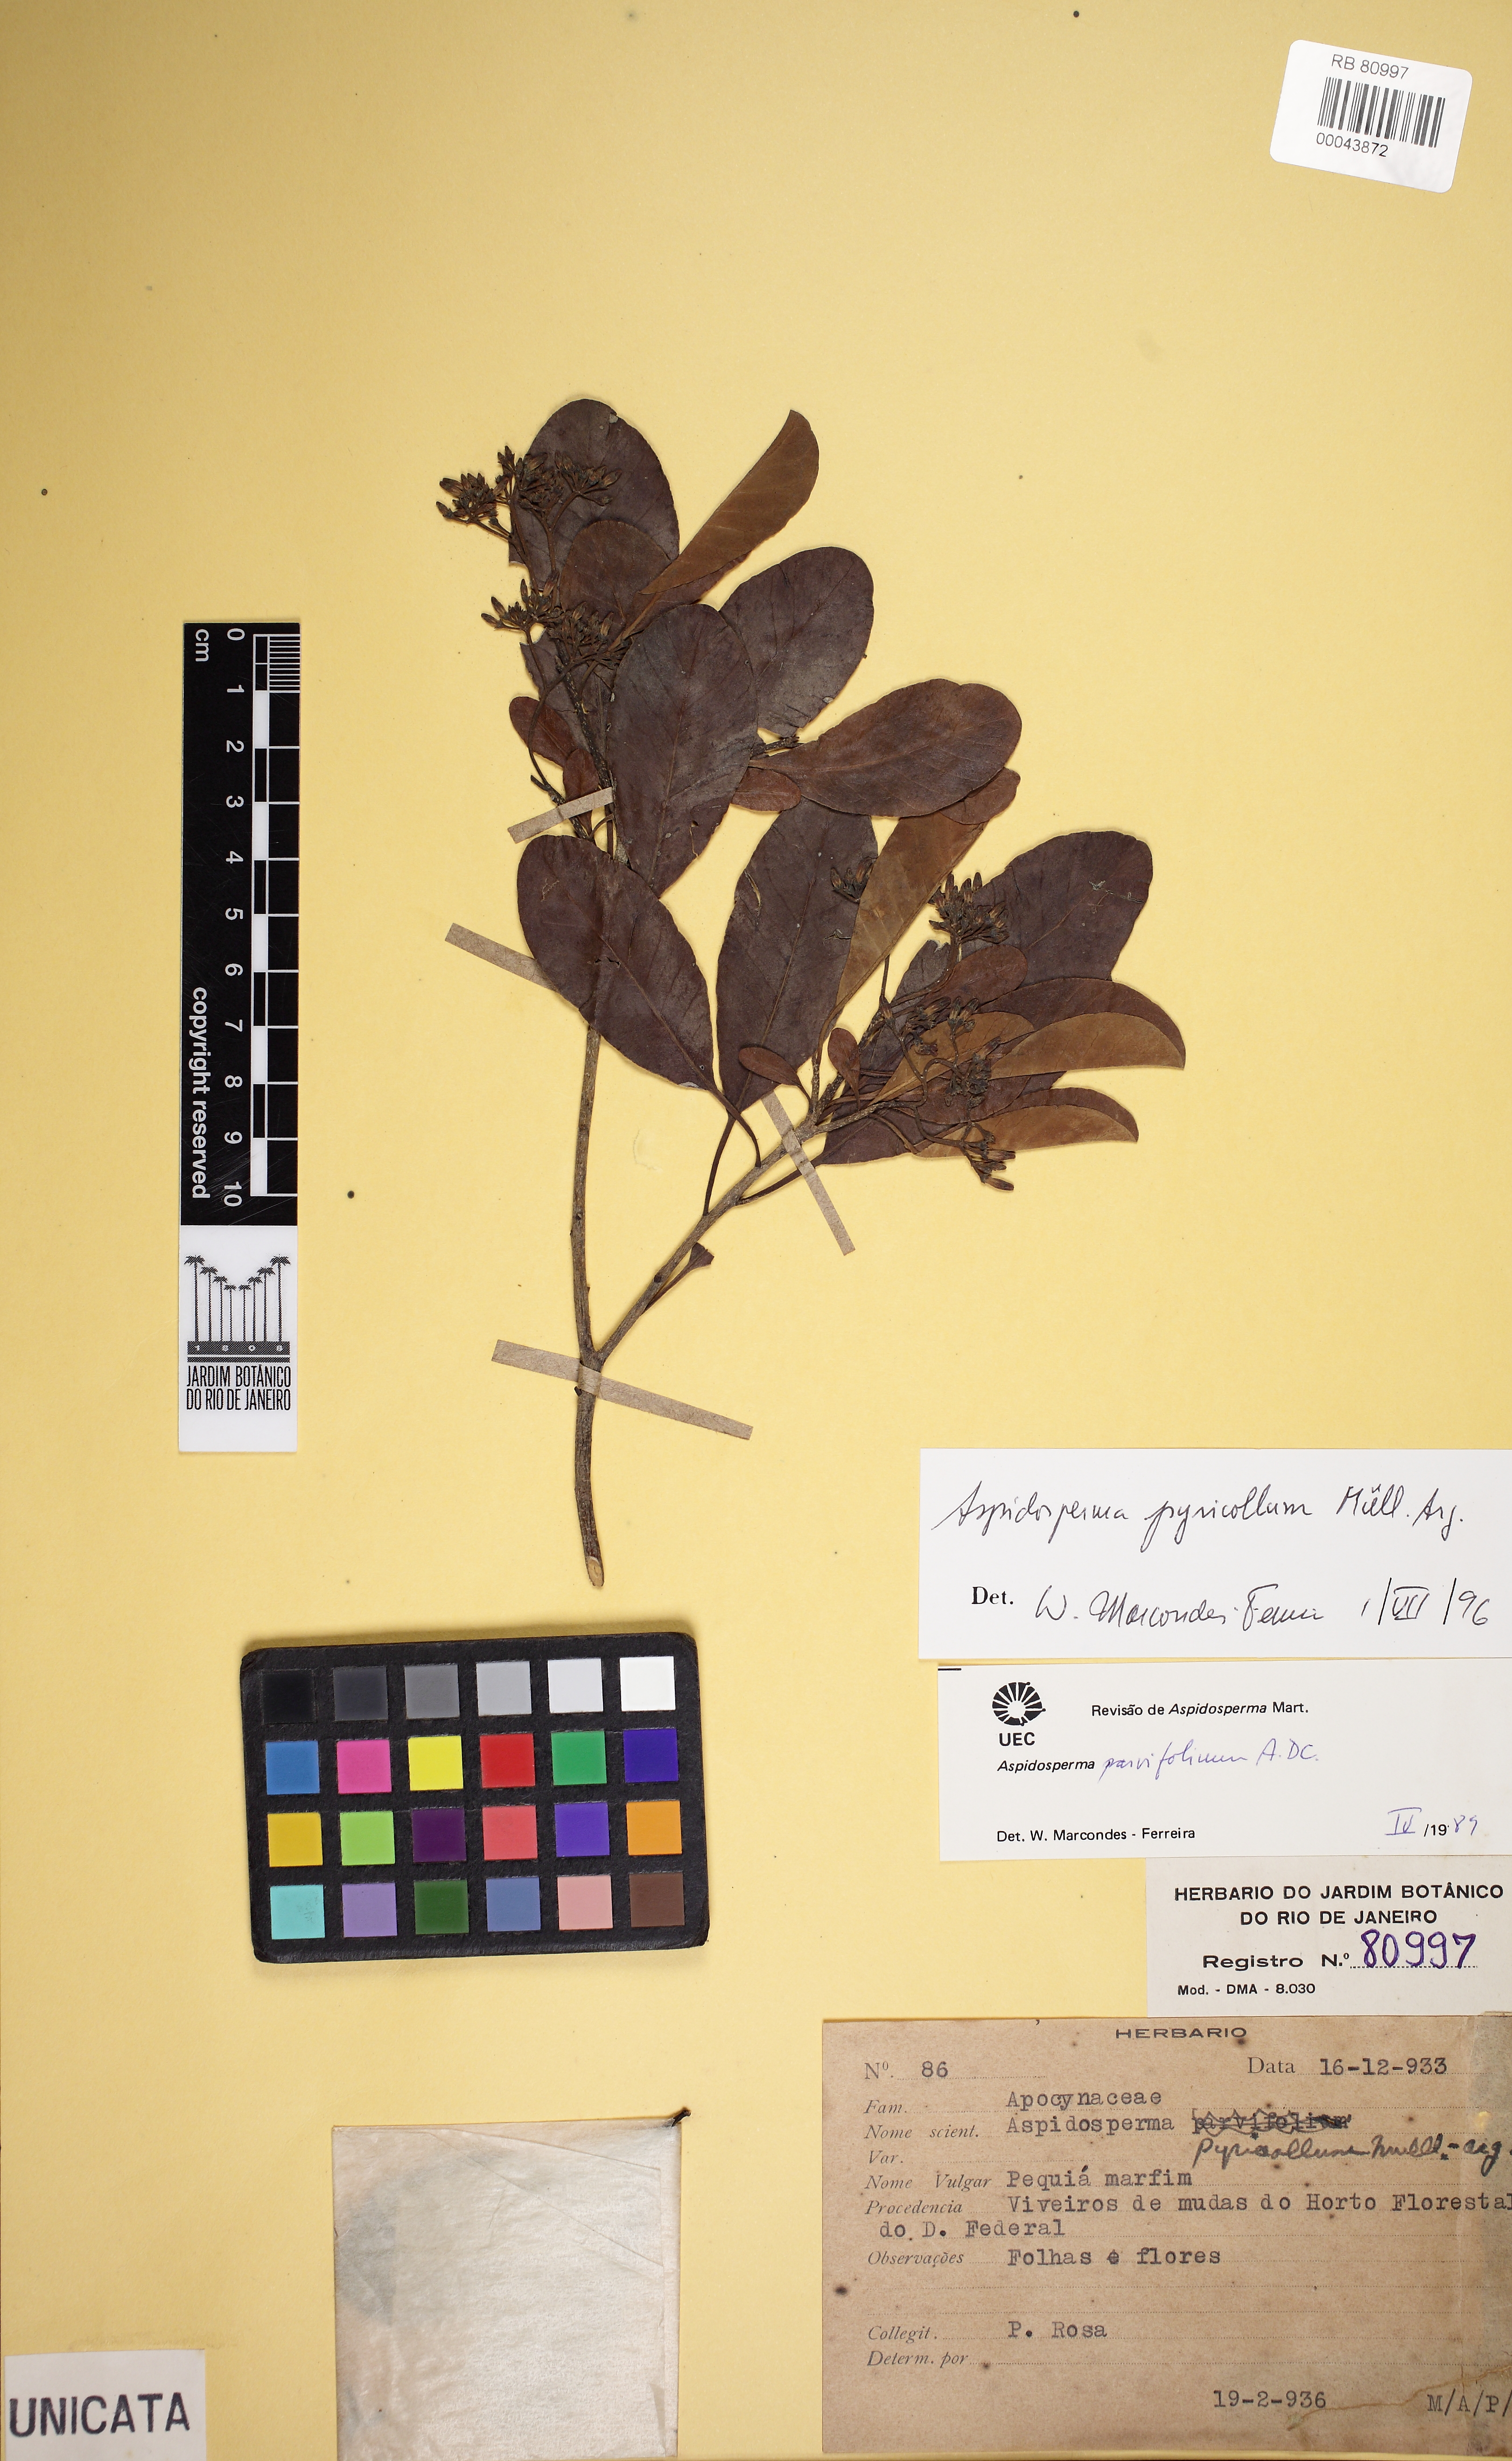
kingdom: Plantae
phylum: Tracheophyta
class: Magnoliopsida
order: Gentianales
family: Apocynaceae
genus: Aspidosperma
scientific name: Aspidosperma pyricollum
